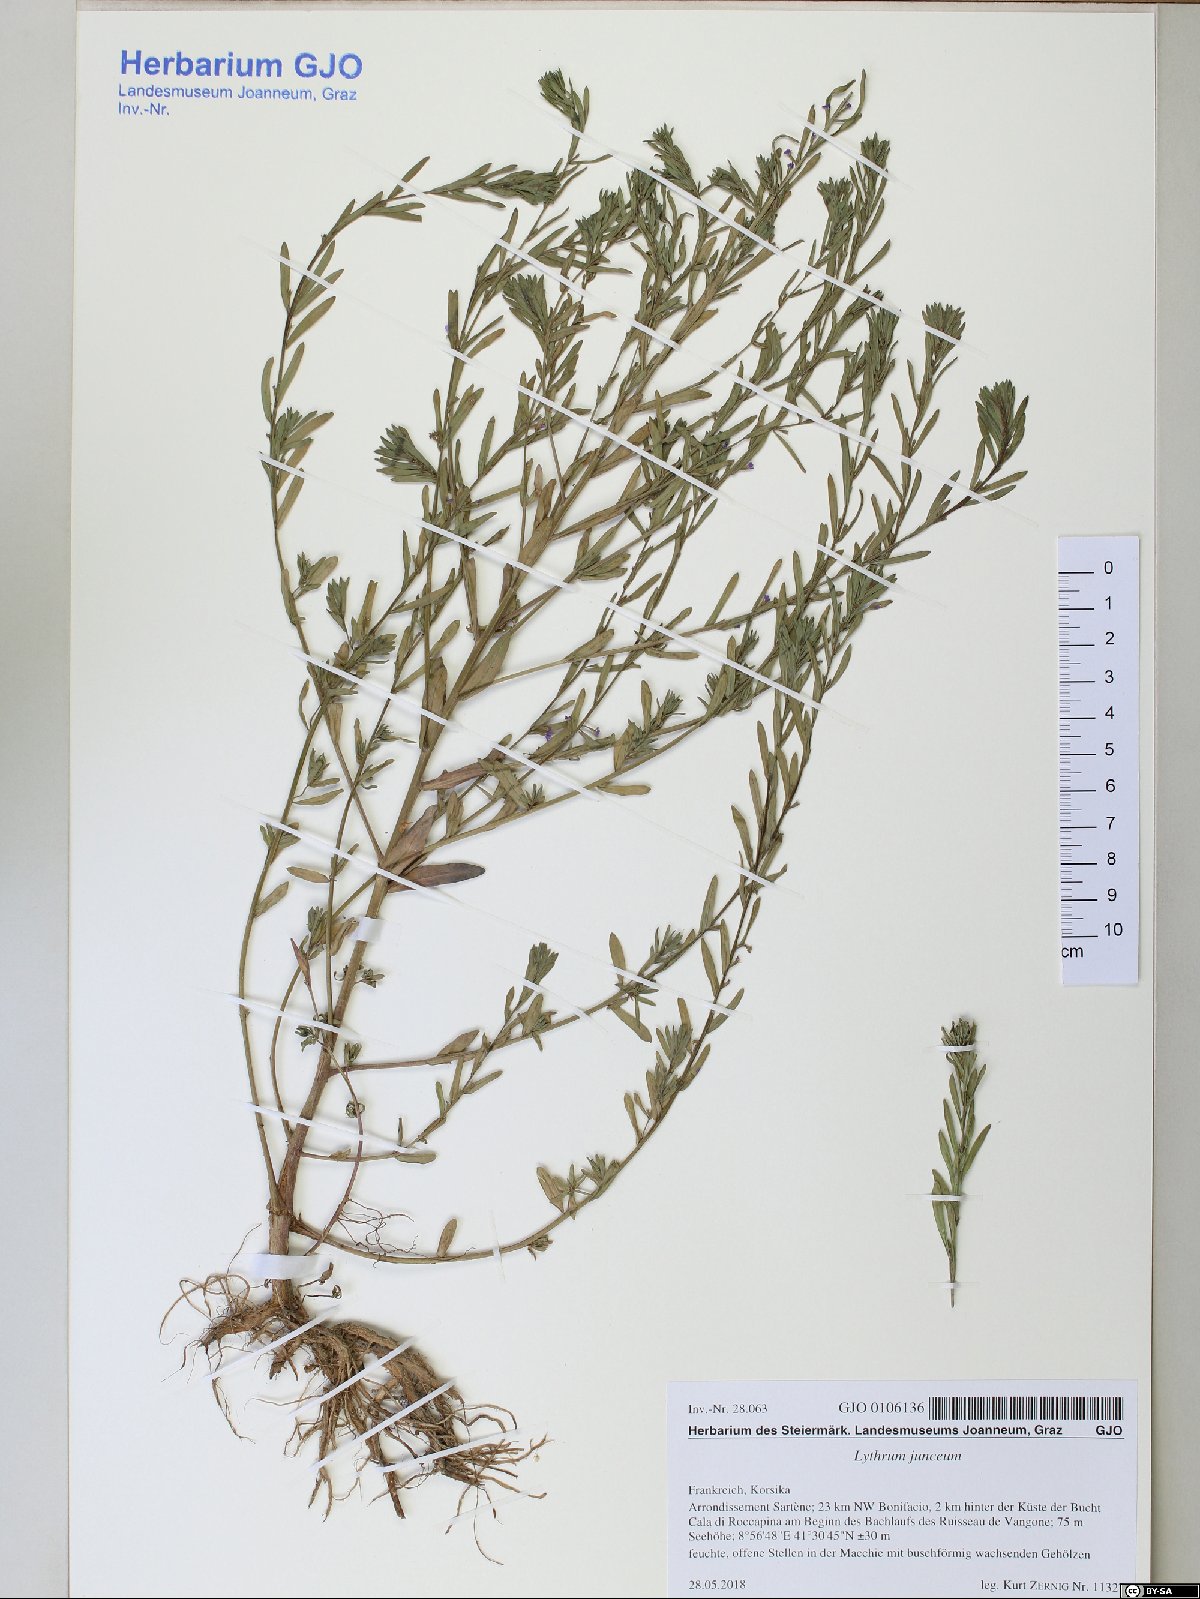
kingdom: Plantae
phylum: Tracheophyta
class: Magnoliopsida
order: Myrtales
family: Lythraceae
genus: Lythrum
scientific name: Lythrum junceum
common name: False grass-poly
